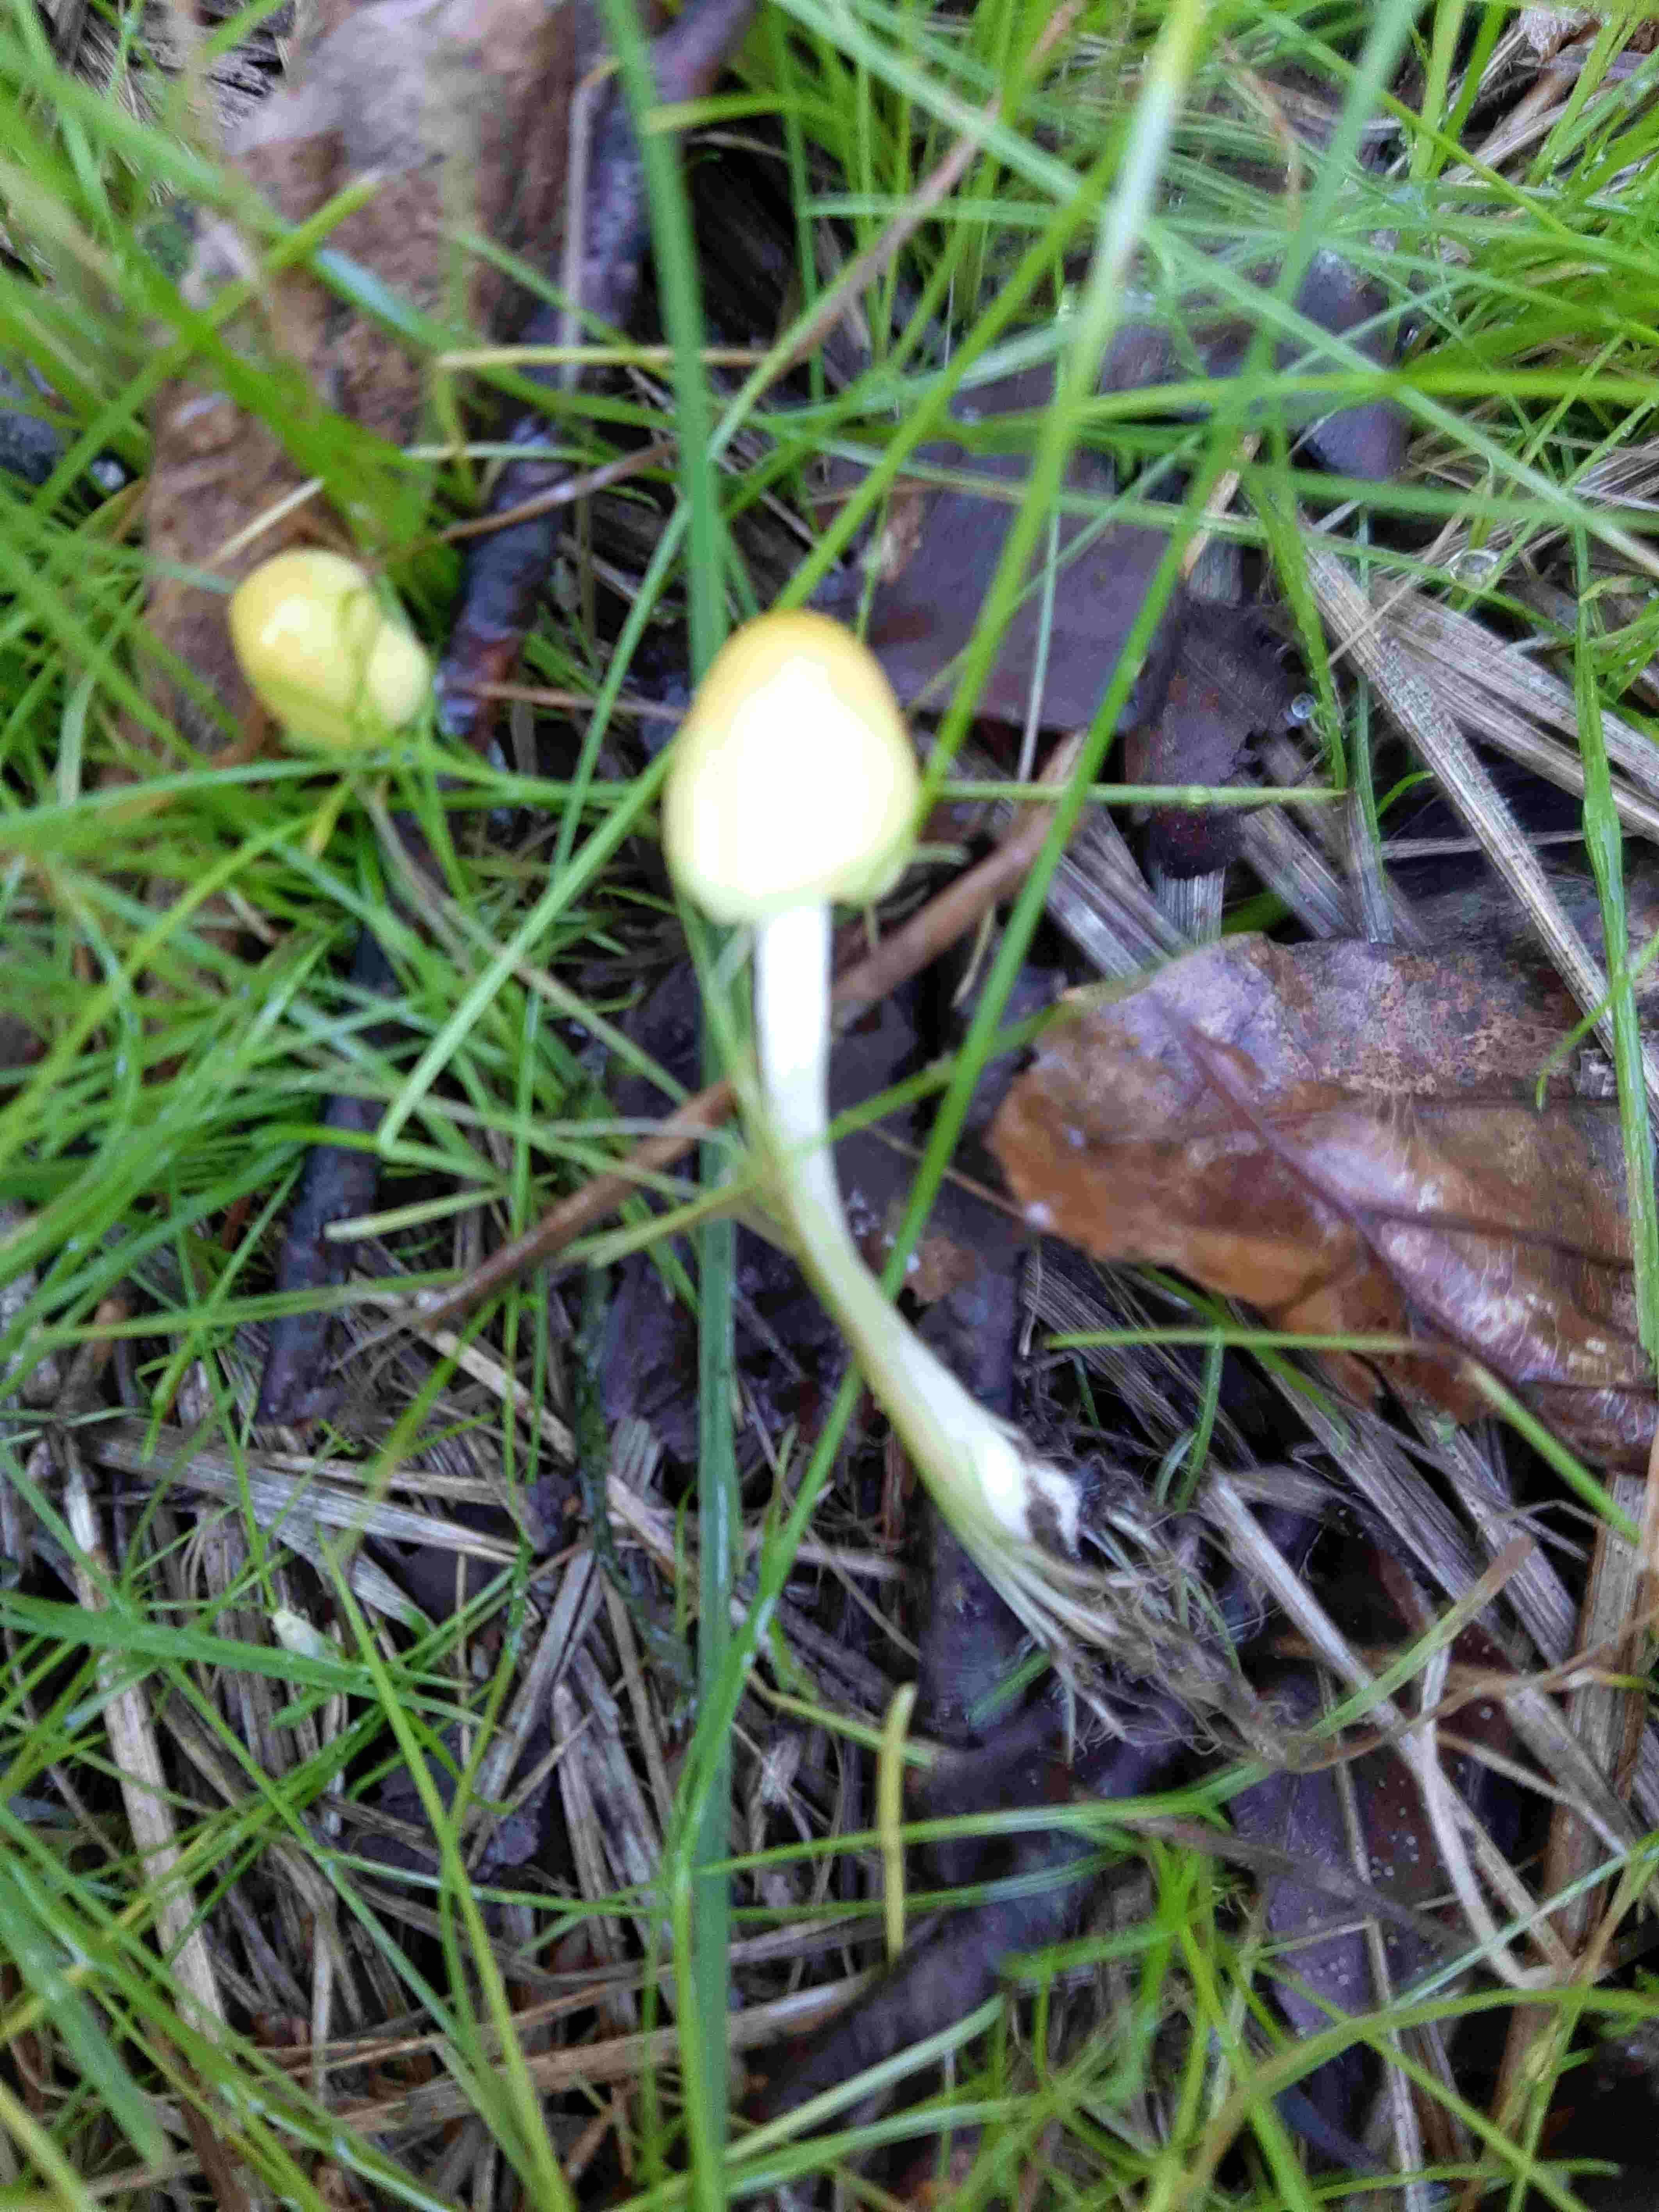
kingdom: Fungi
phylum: Basidiomycota
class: Agaricomycetes
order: Agaricales
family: Bolbitiaceae
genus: Bolbitius
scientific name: Bolbitius titubans
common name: almindelig gulhat
